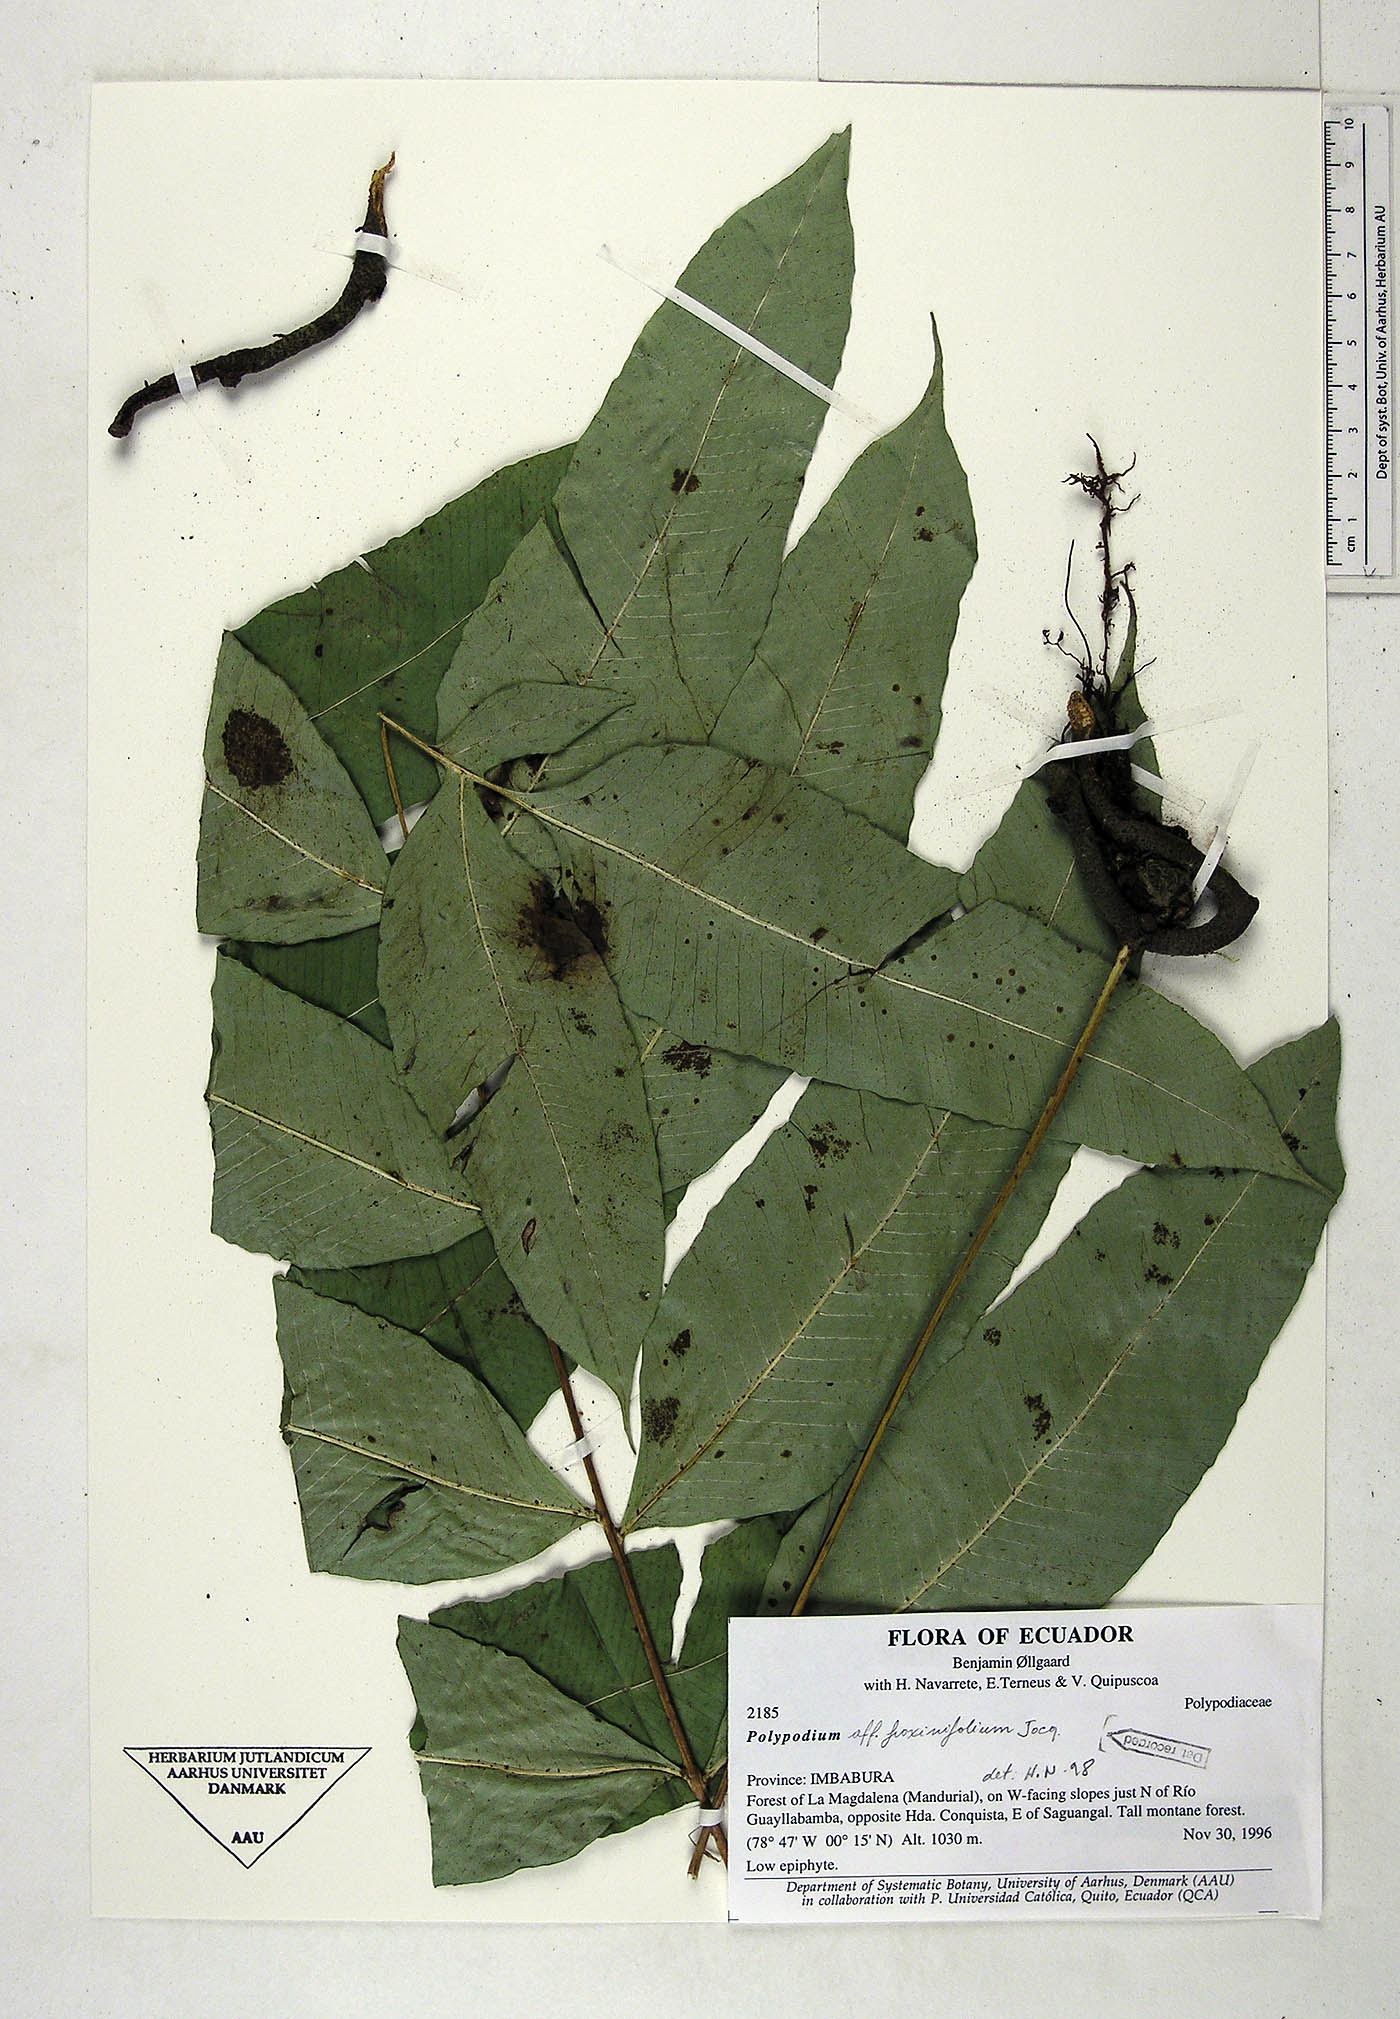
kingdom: Plantae
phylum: Tracheophyta
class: Polypodiopsida
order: Polypodiales
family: Polypodiaceae
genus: Serpocaulon
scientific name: Serpocaulon fraxinifolium
